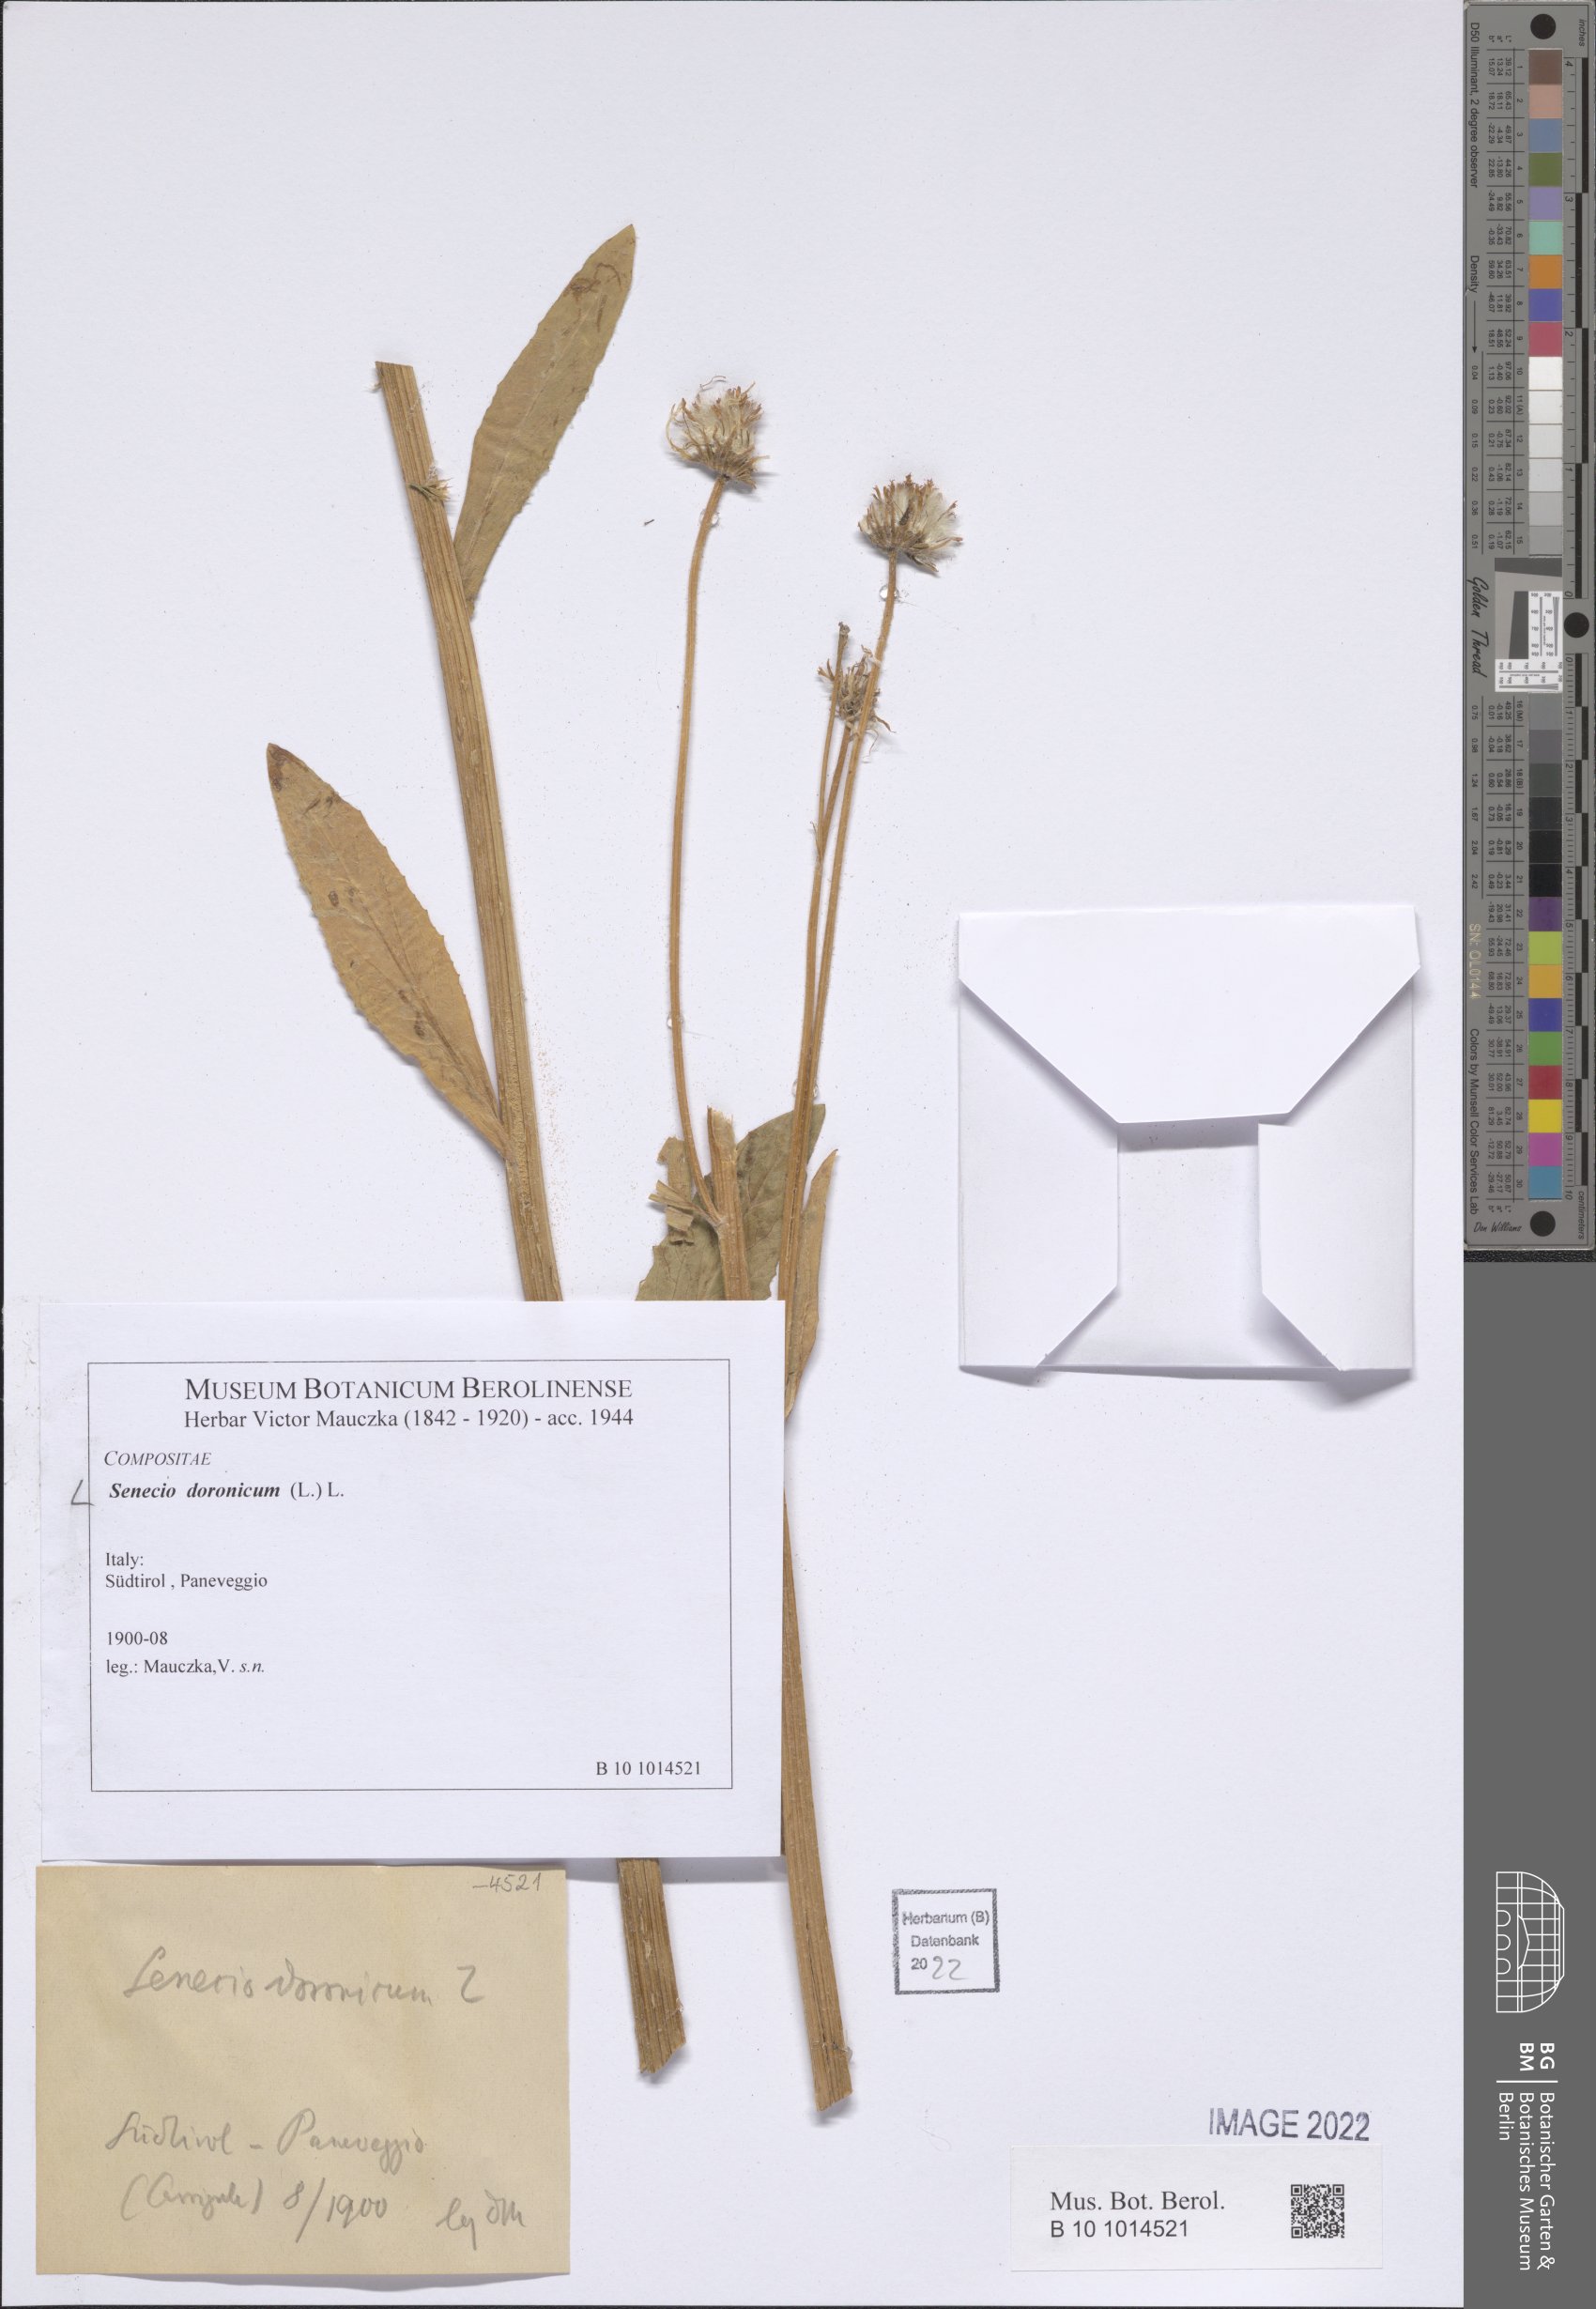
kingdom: Plantae
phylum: Tracheophyta
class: Magnoliopsida
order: Asterales
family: Asteraceae
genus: Senecio
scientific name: Senecio doronicum
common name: Chamois ragwort
